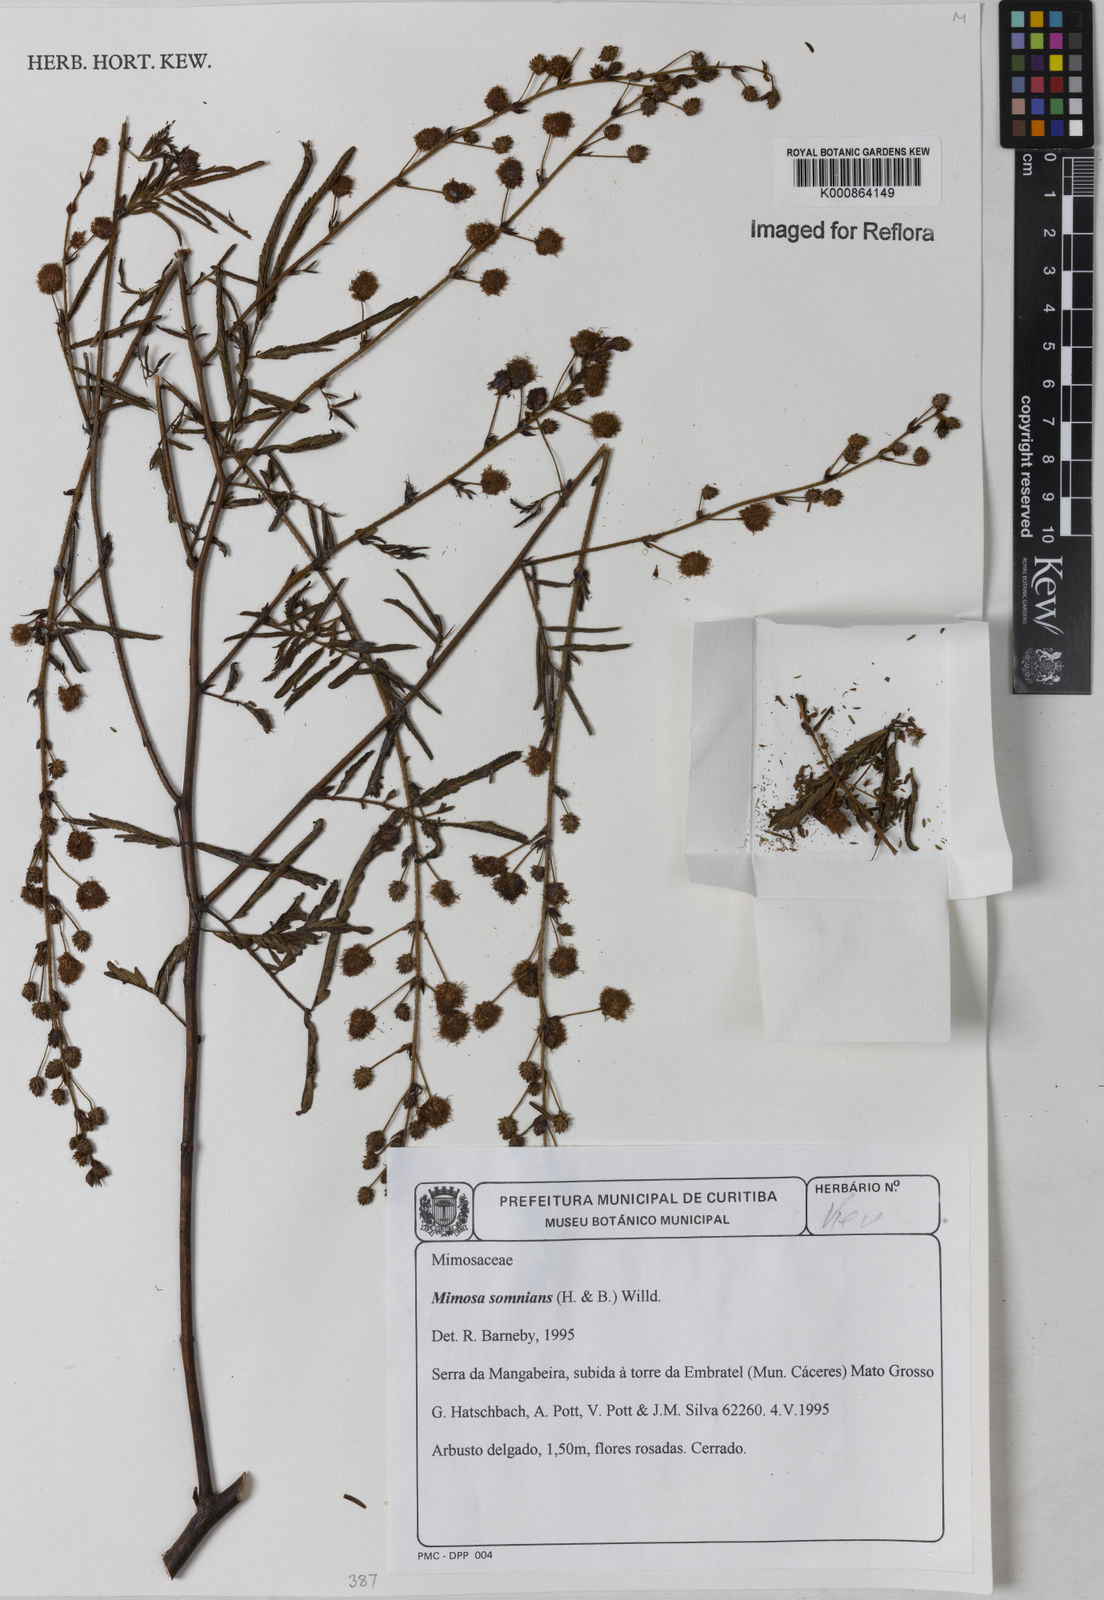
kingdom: Plantae
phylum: Tracheophyta
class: Magnoliopsida
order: Fabales
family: Fabaceae
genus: Mimosa
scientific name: Mimosa somnians
